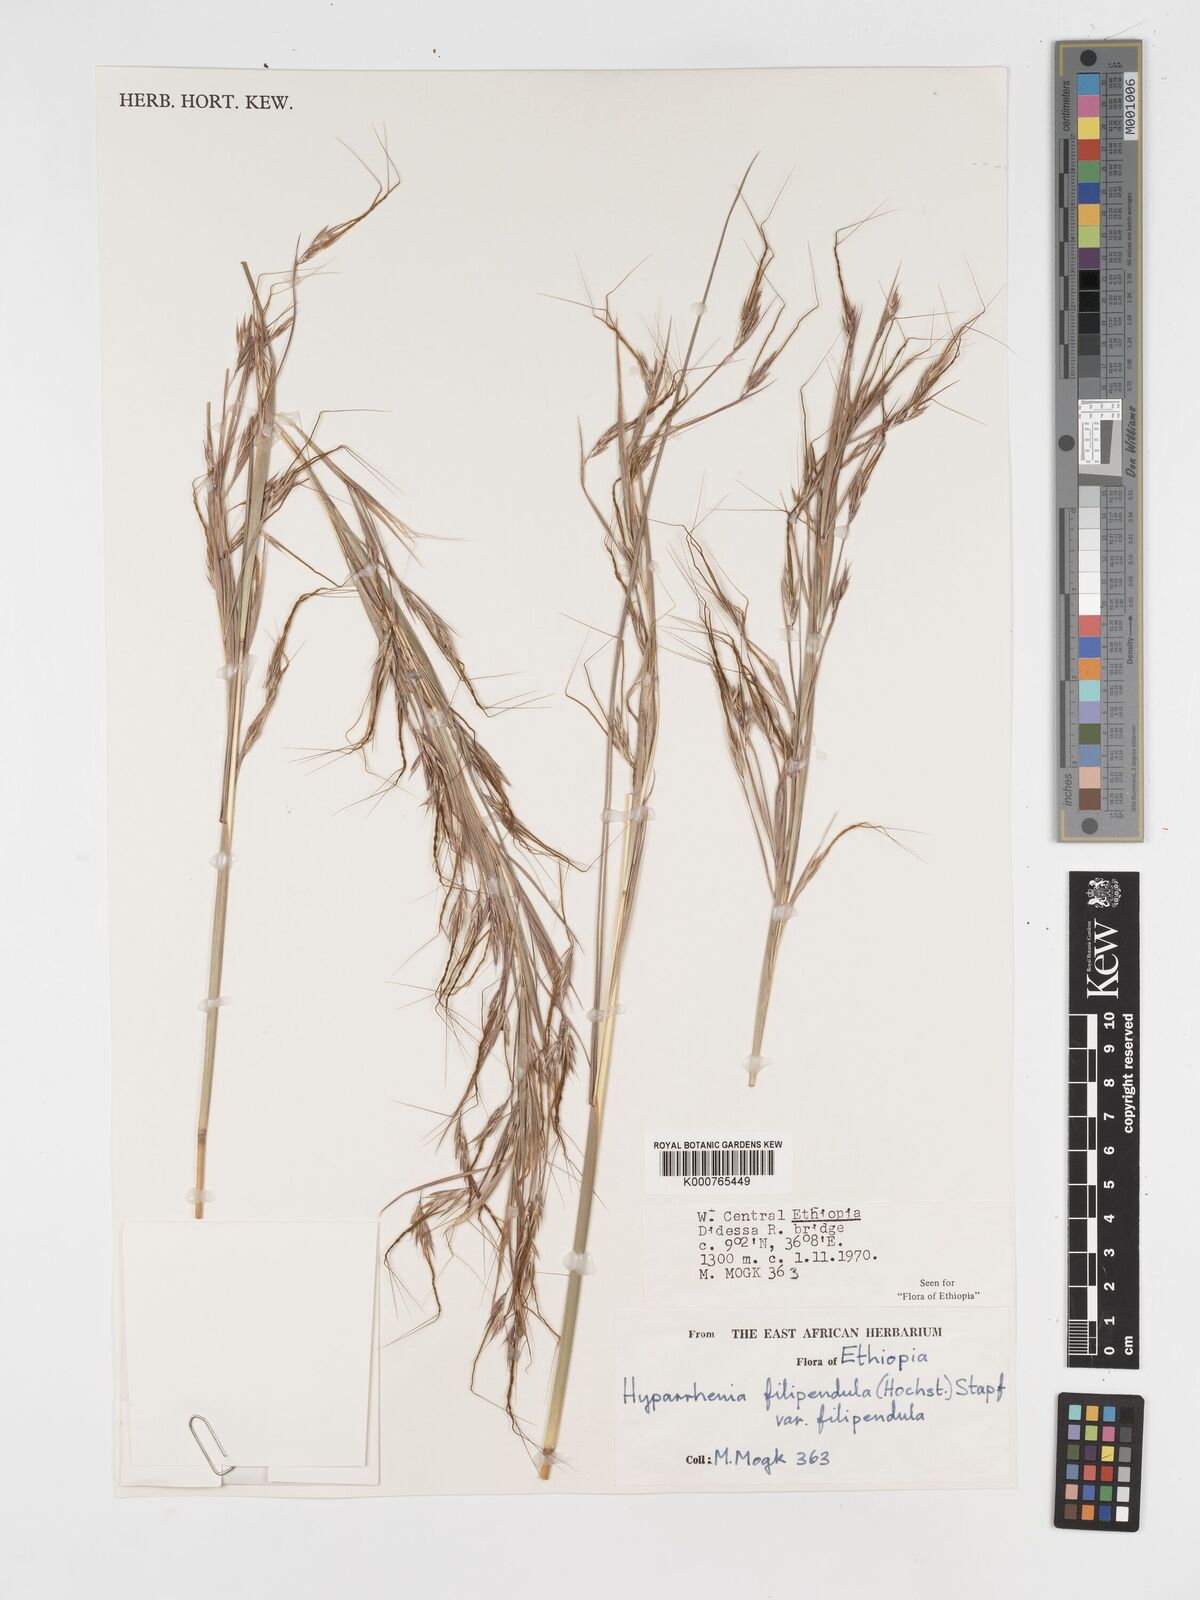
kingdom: Plantae
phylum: Tracheophyta
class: Liliopsida
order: Poales
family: Poaceae
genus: Hyparrhenia
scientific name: Hyparrhenia filipendula
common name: Tambookie grass
